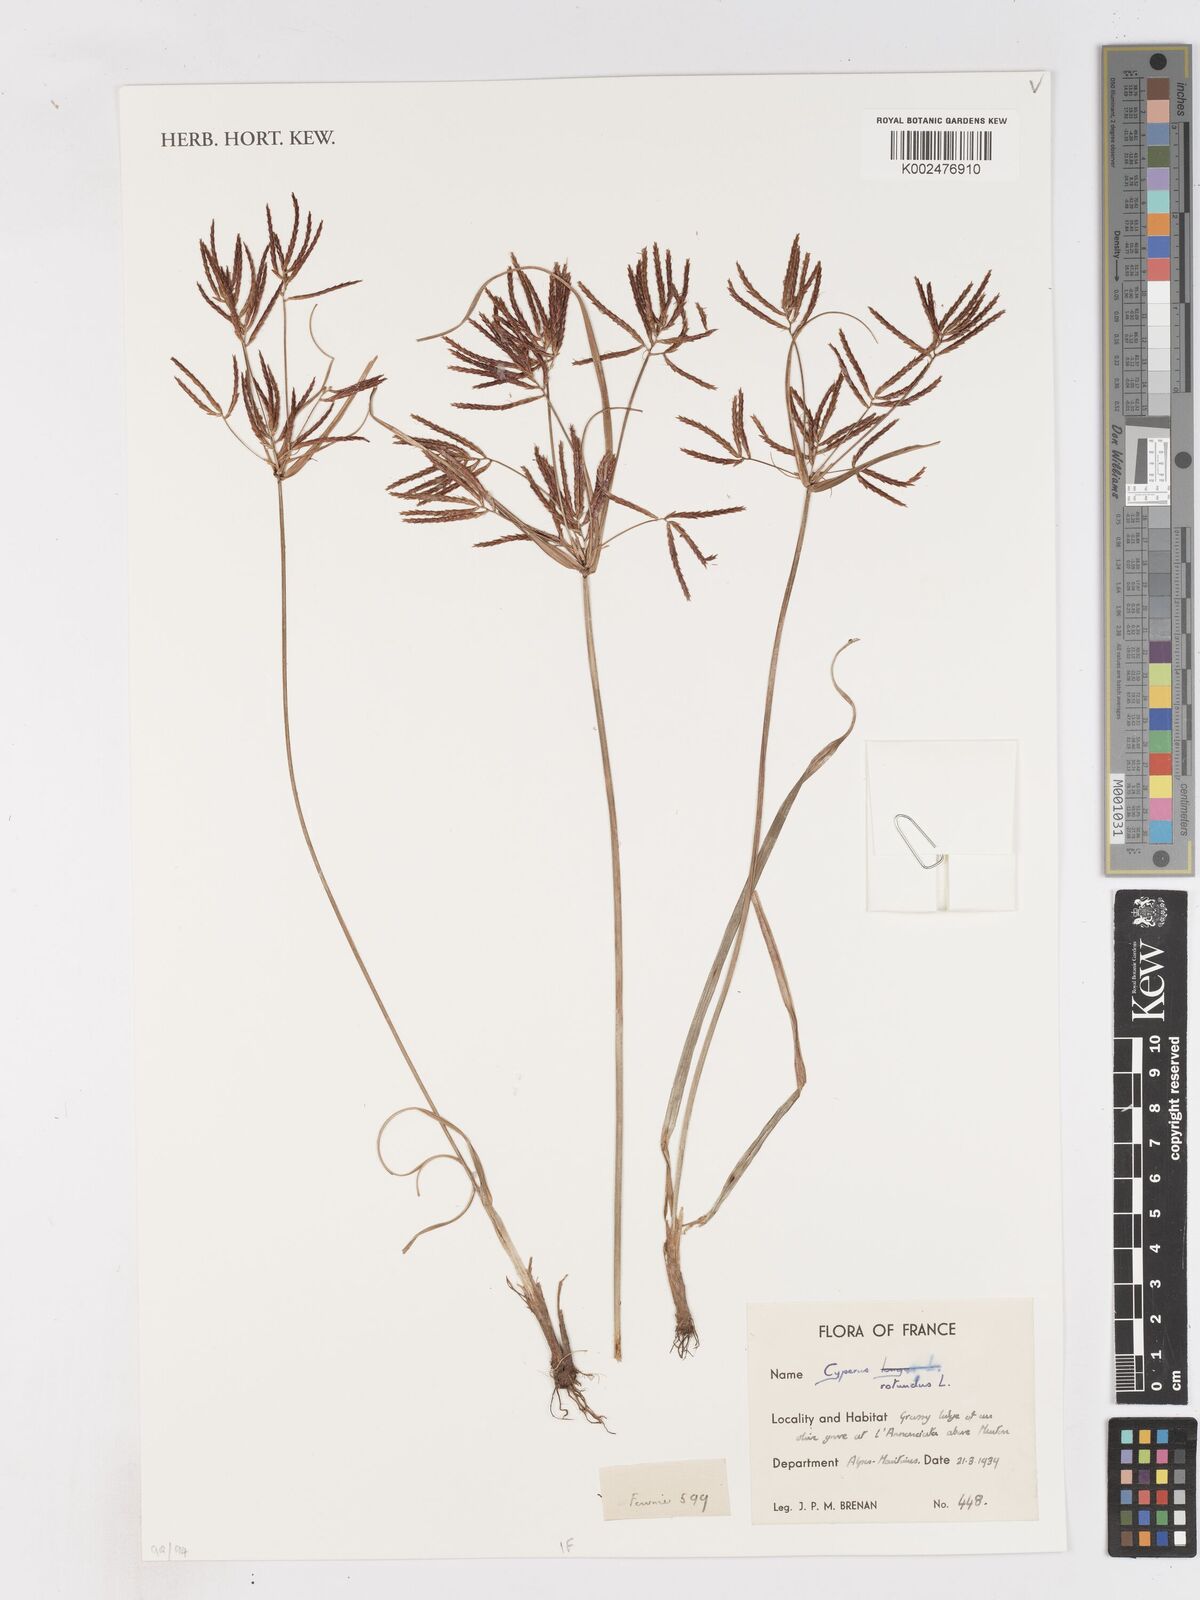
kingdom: Plantae
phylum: Tracheophyta
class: Liliopsida
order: Poales
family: Cyperaceae
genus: Cyperus
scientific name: Cyperus rotundus
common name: Nutgrass
